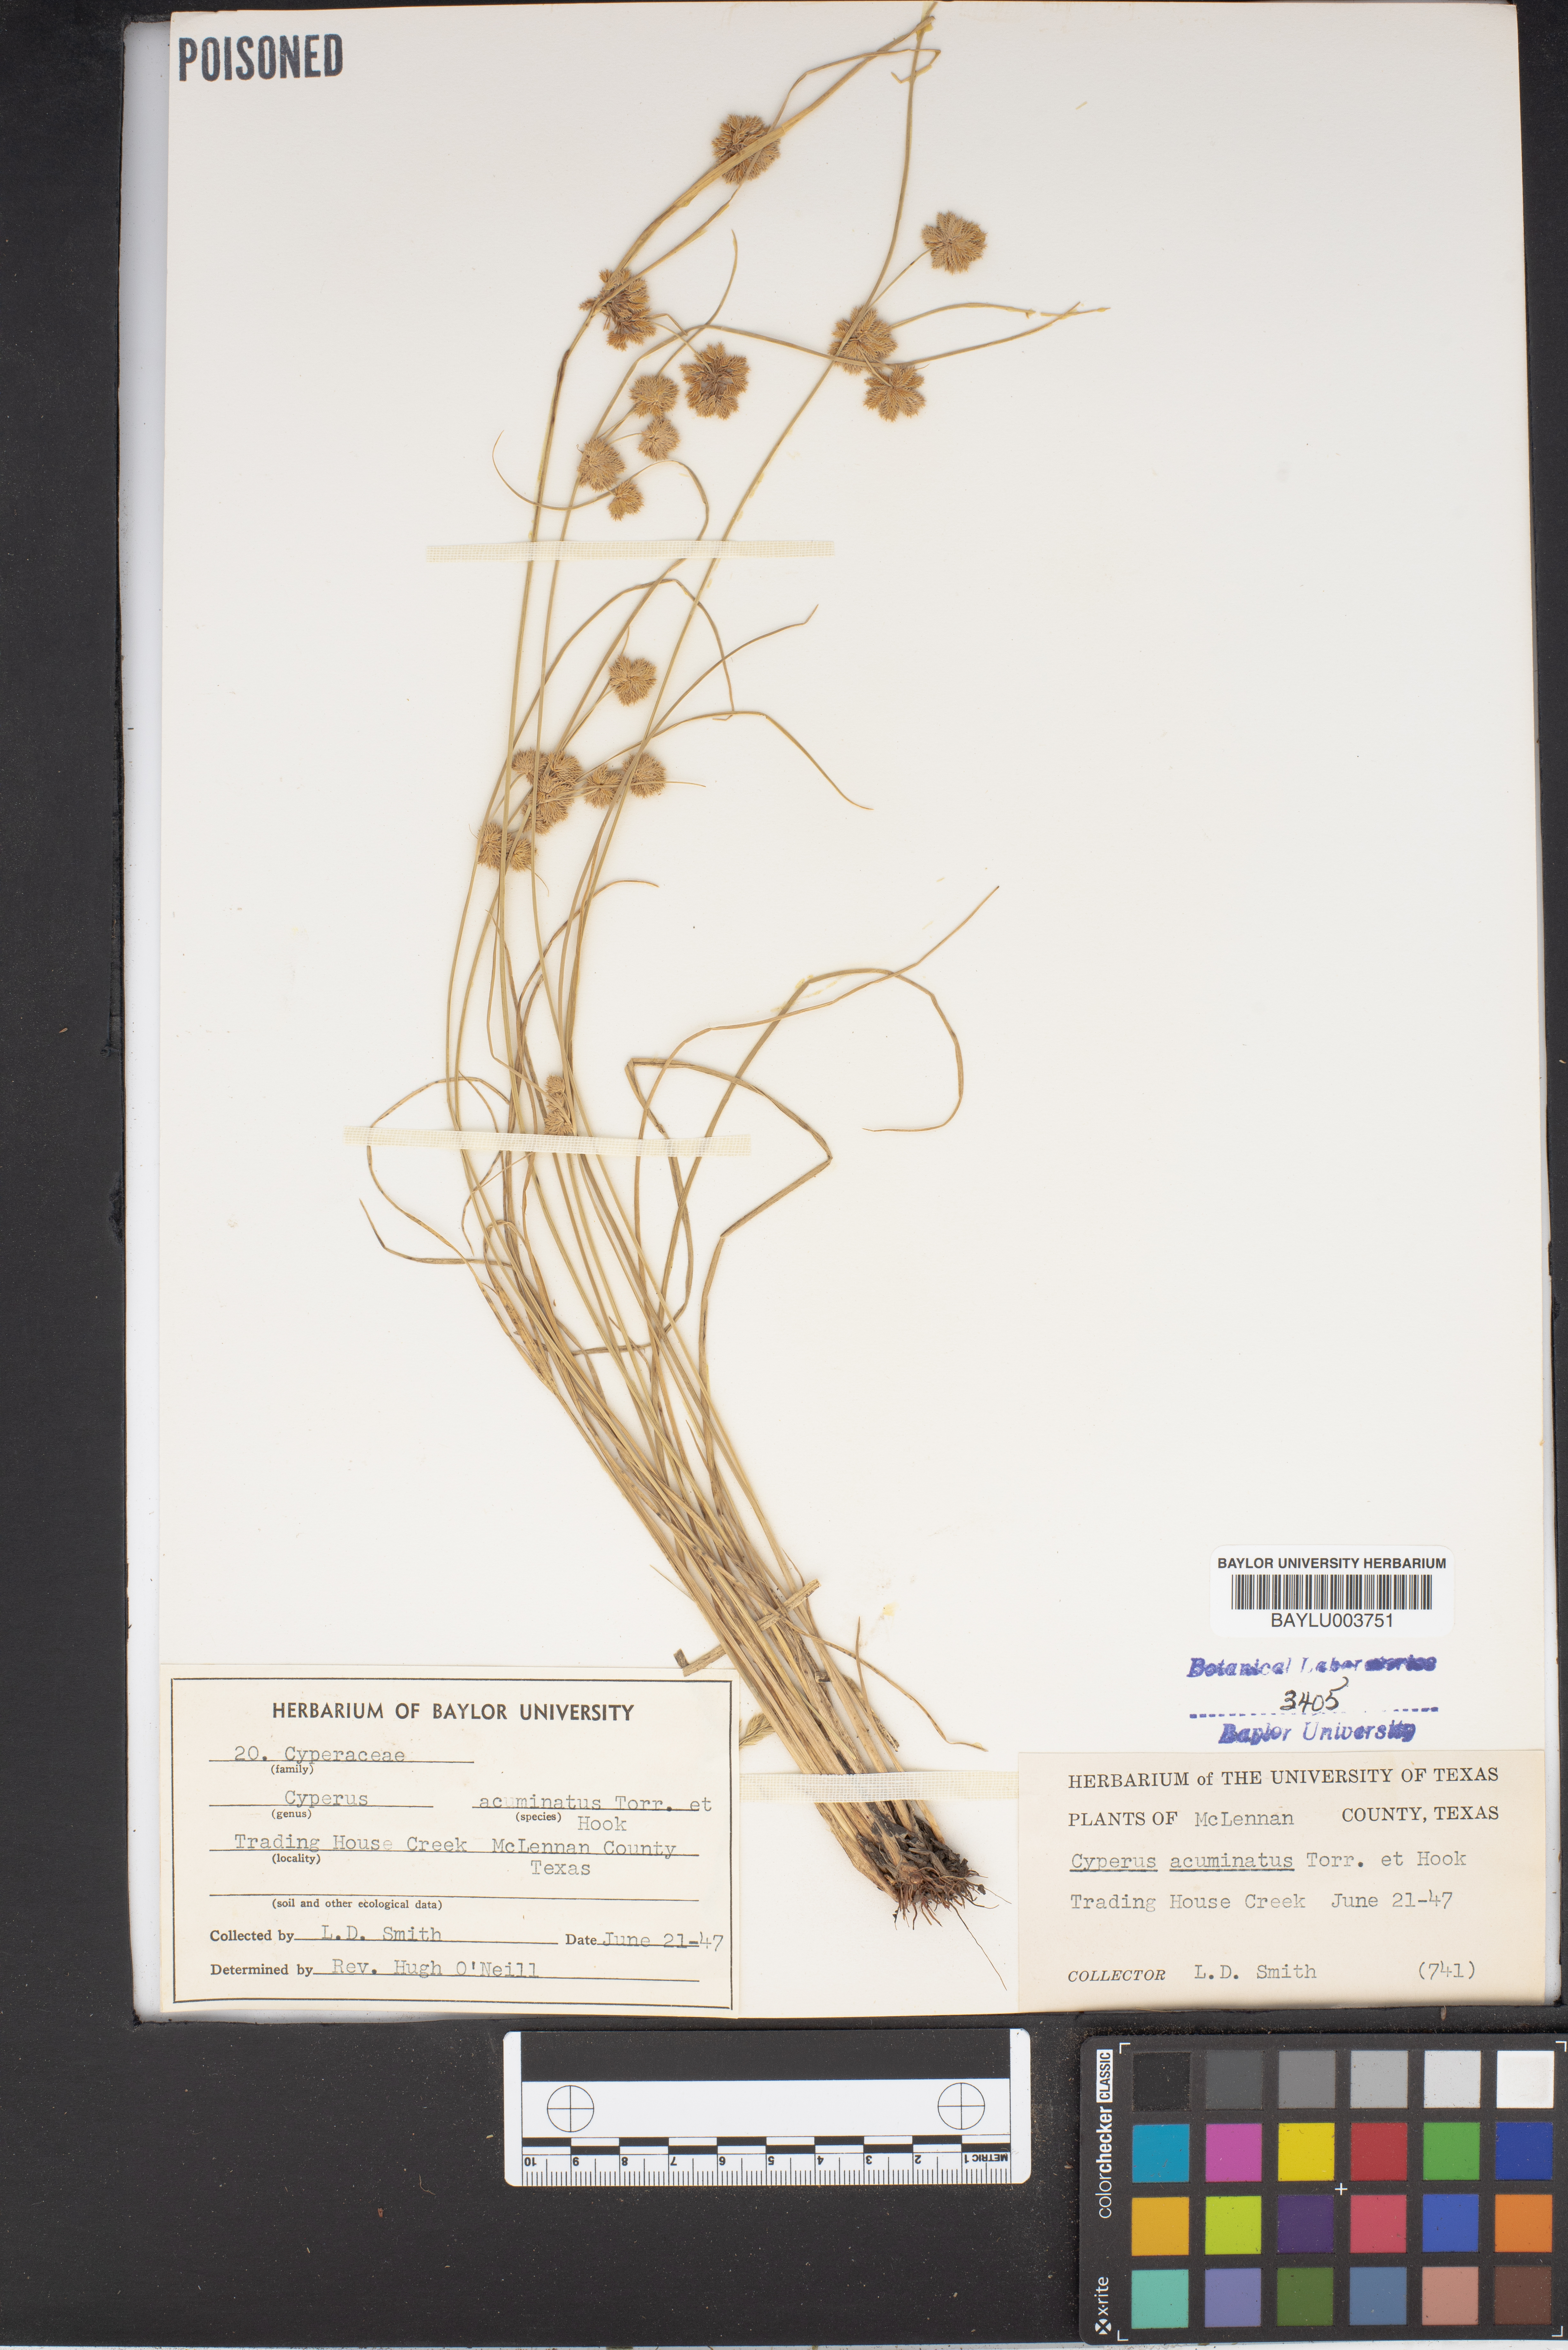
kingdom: Plantae
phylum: Tracheophyta
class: Liliopsida
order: Poales
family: Cyperaceae
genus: Cyperus
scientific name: Cyperus acuminatus
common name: Short-pointed cyperus
